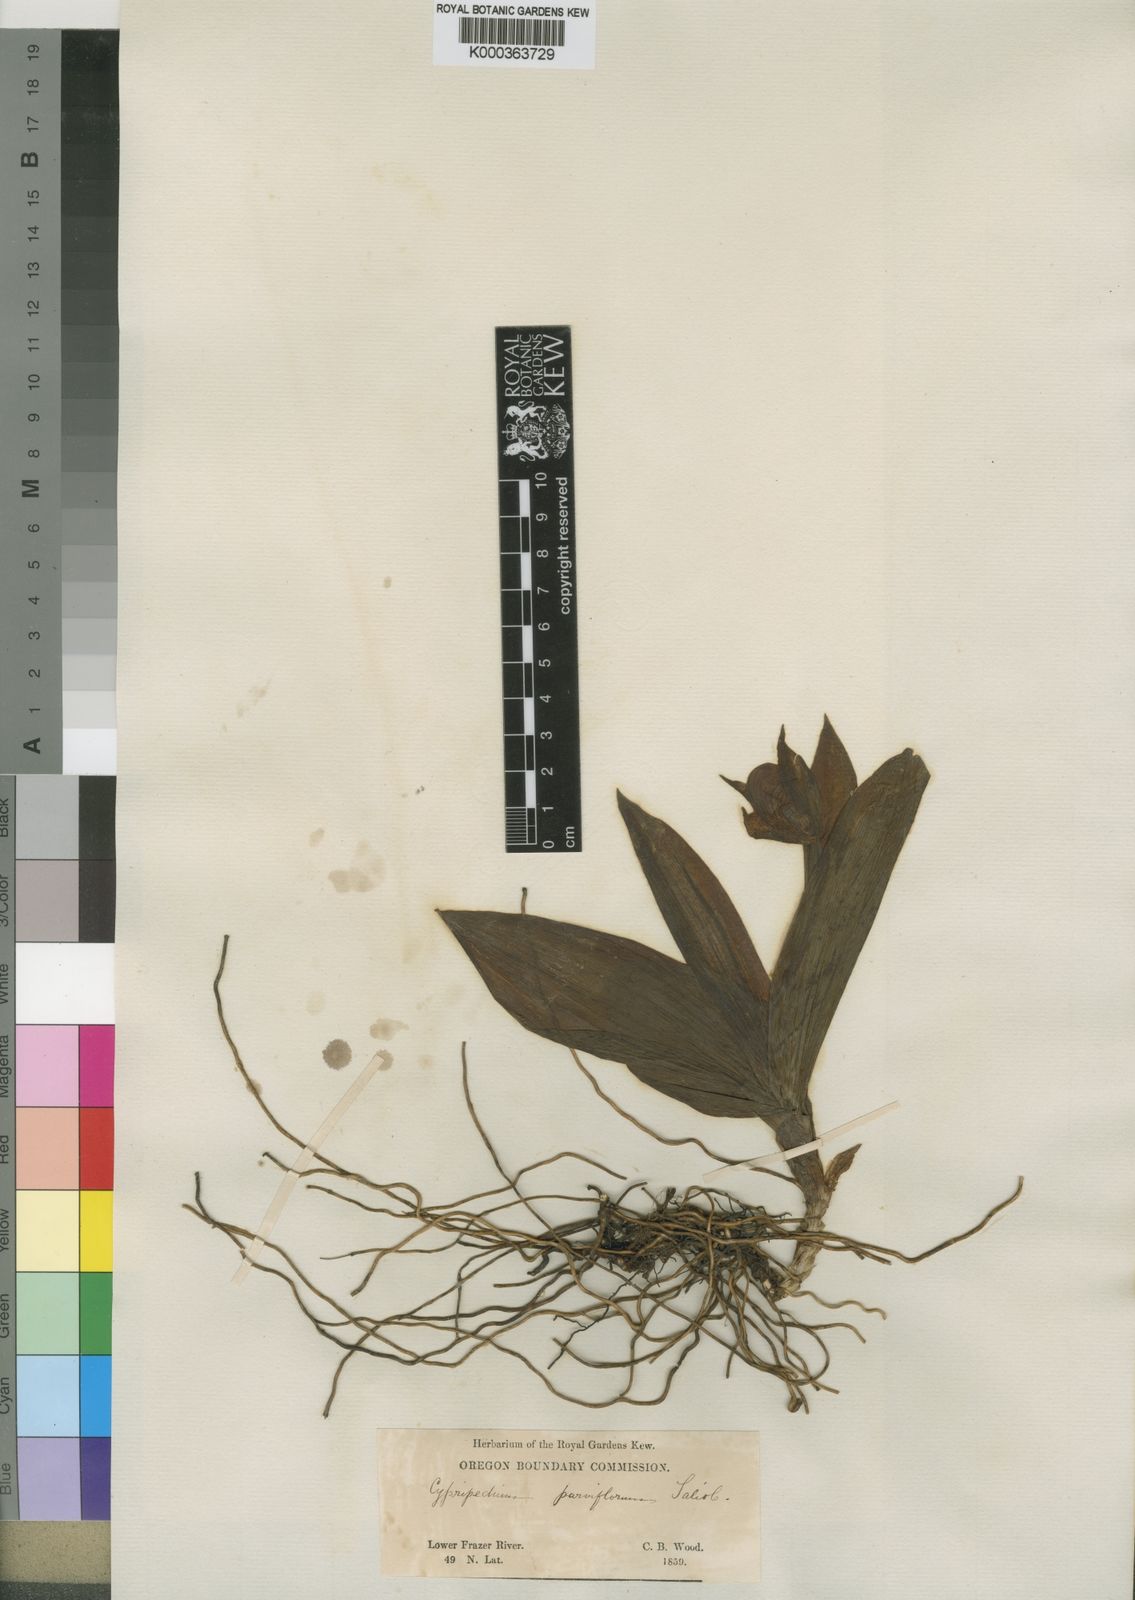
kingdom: Plantae
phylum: Tracheophyta
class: Liliopsida
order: Asparagales
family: Orchidaceae
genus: Cypripedium
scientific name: Cypripedium parviflorum
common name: American yellow lady's-slipper
